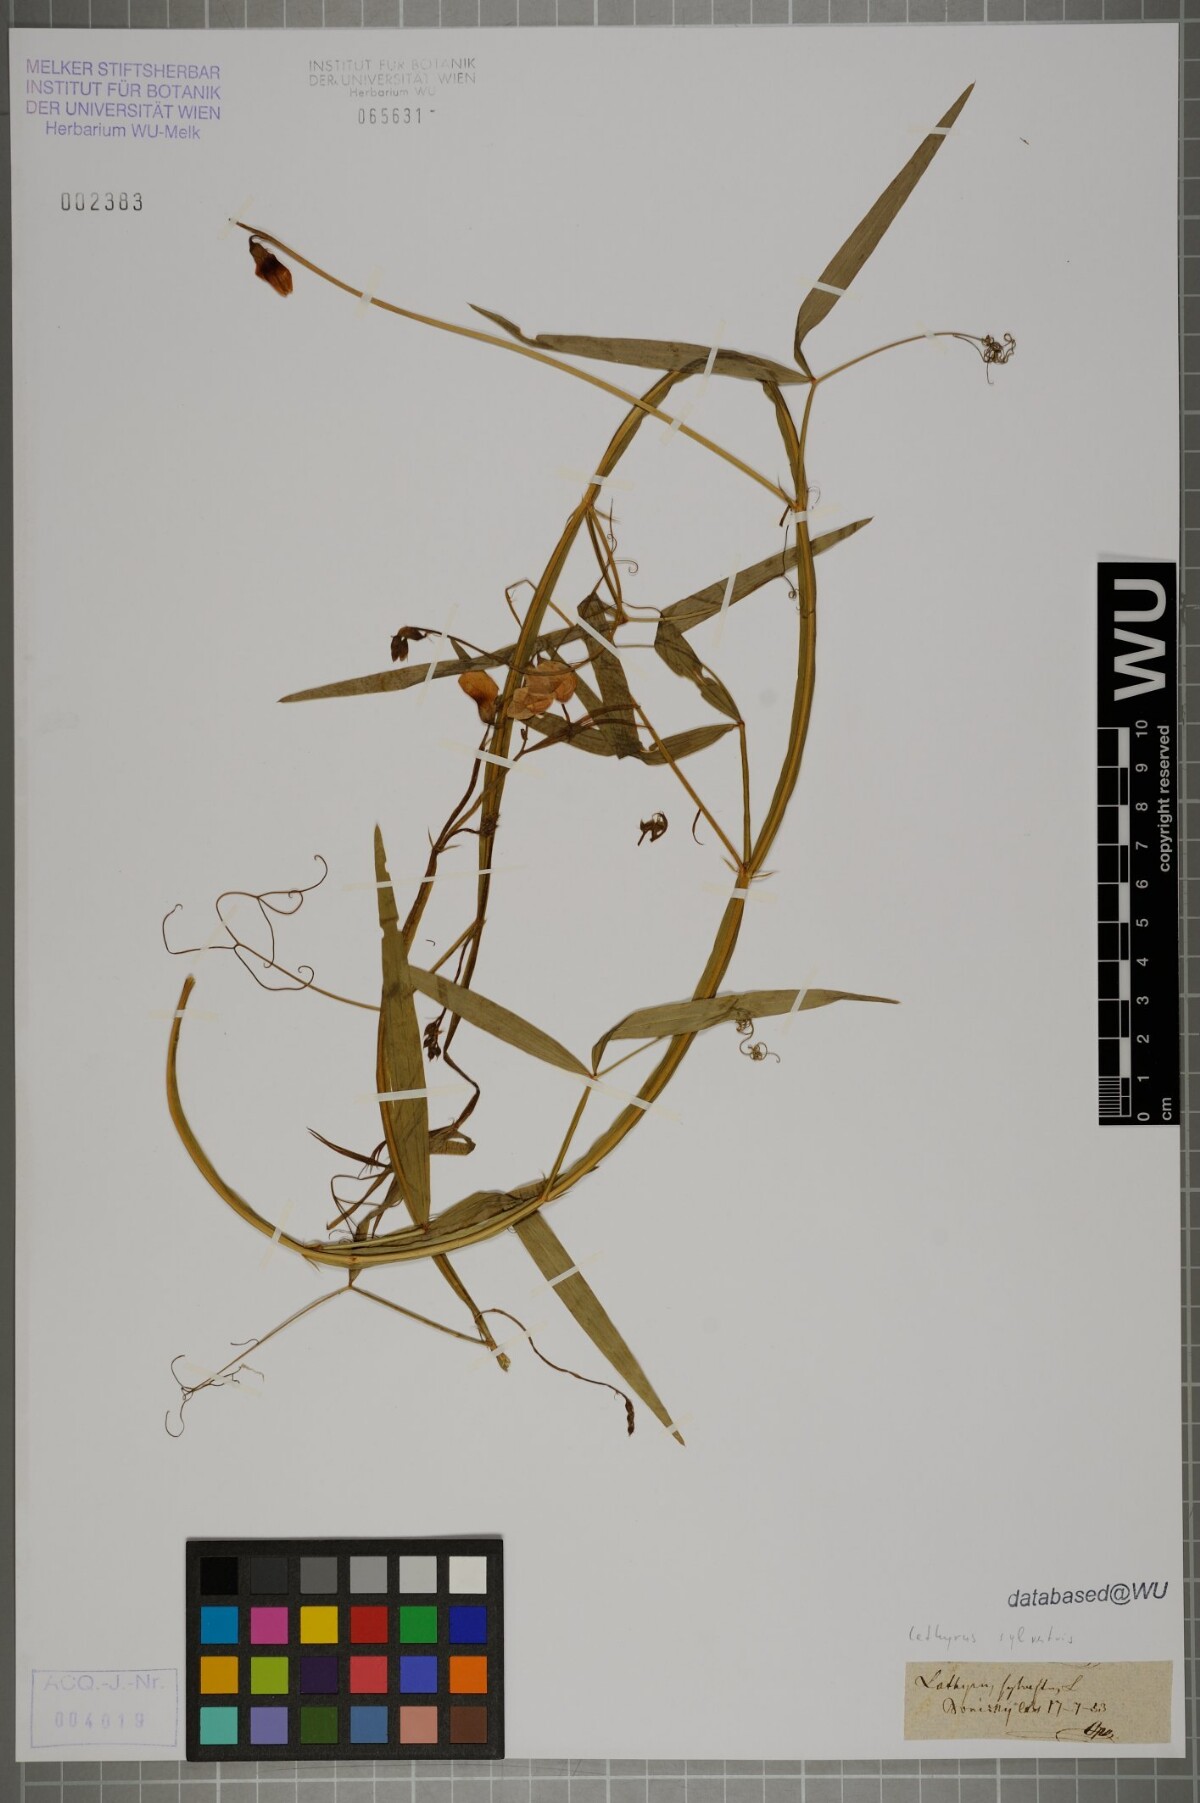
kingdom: Plantae
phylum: Tracheophyta
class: Magnoliopsida
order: Fabales
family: Fabaceae
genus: Lathyrus
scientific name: Lathyrus sylvestris
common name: Flat pea
